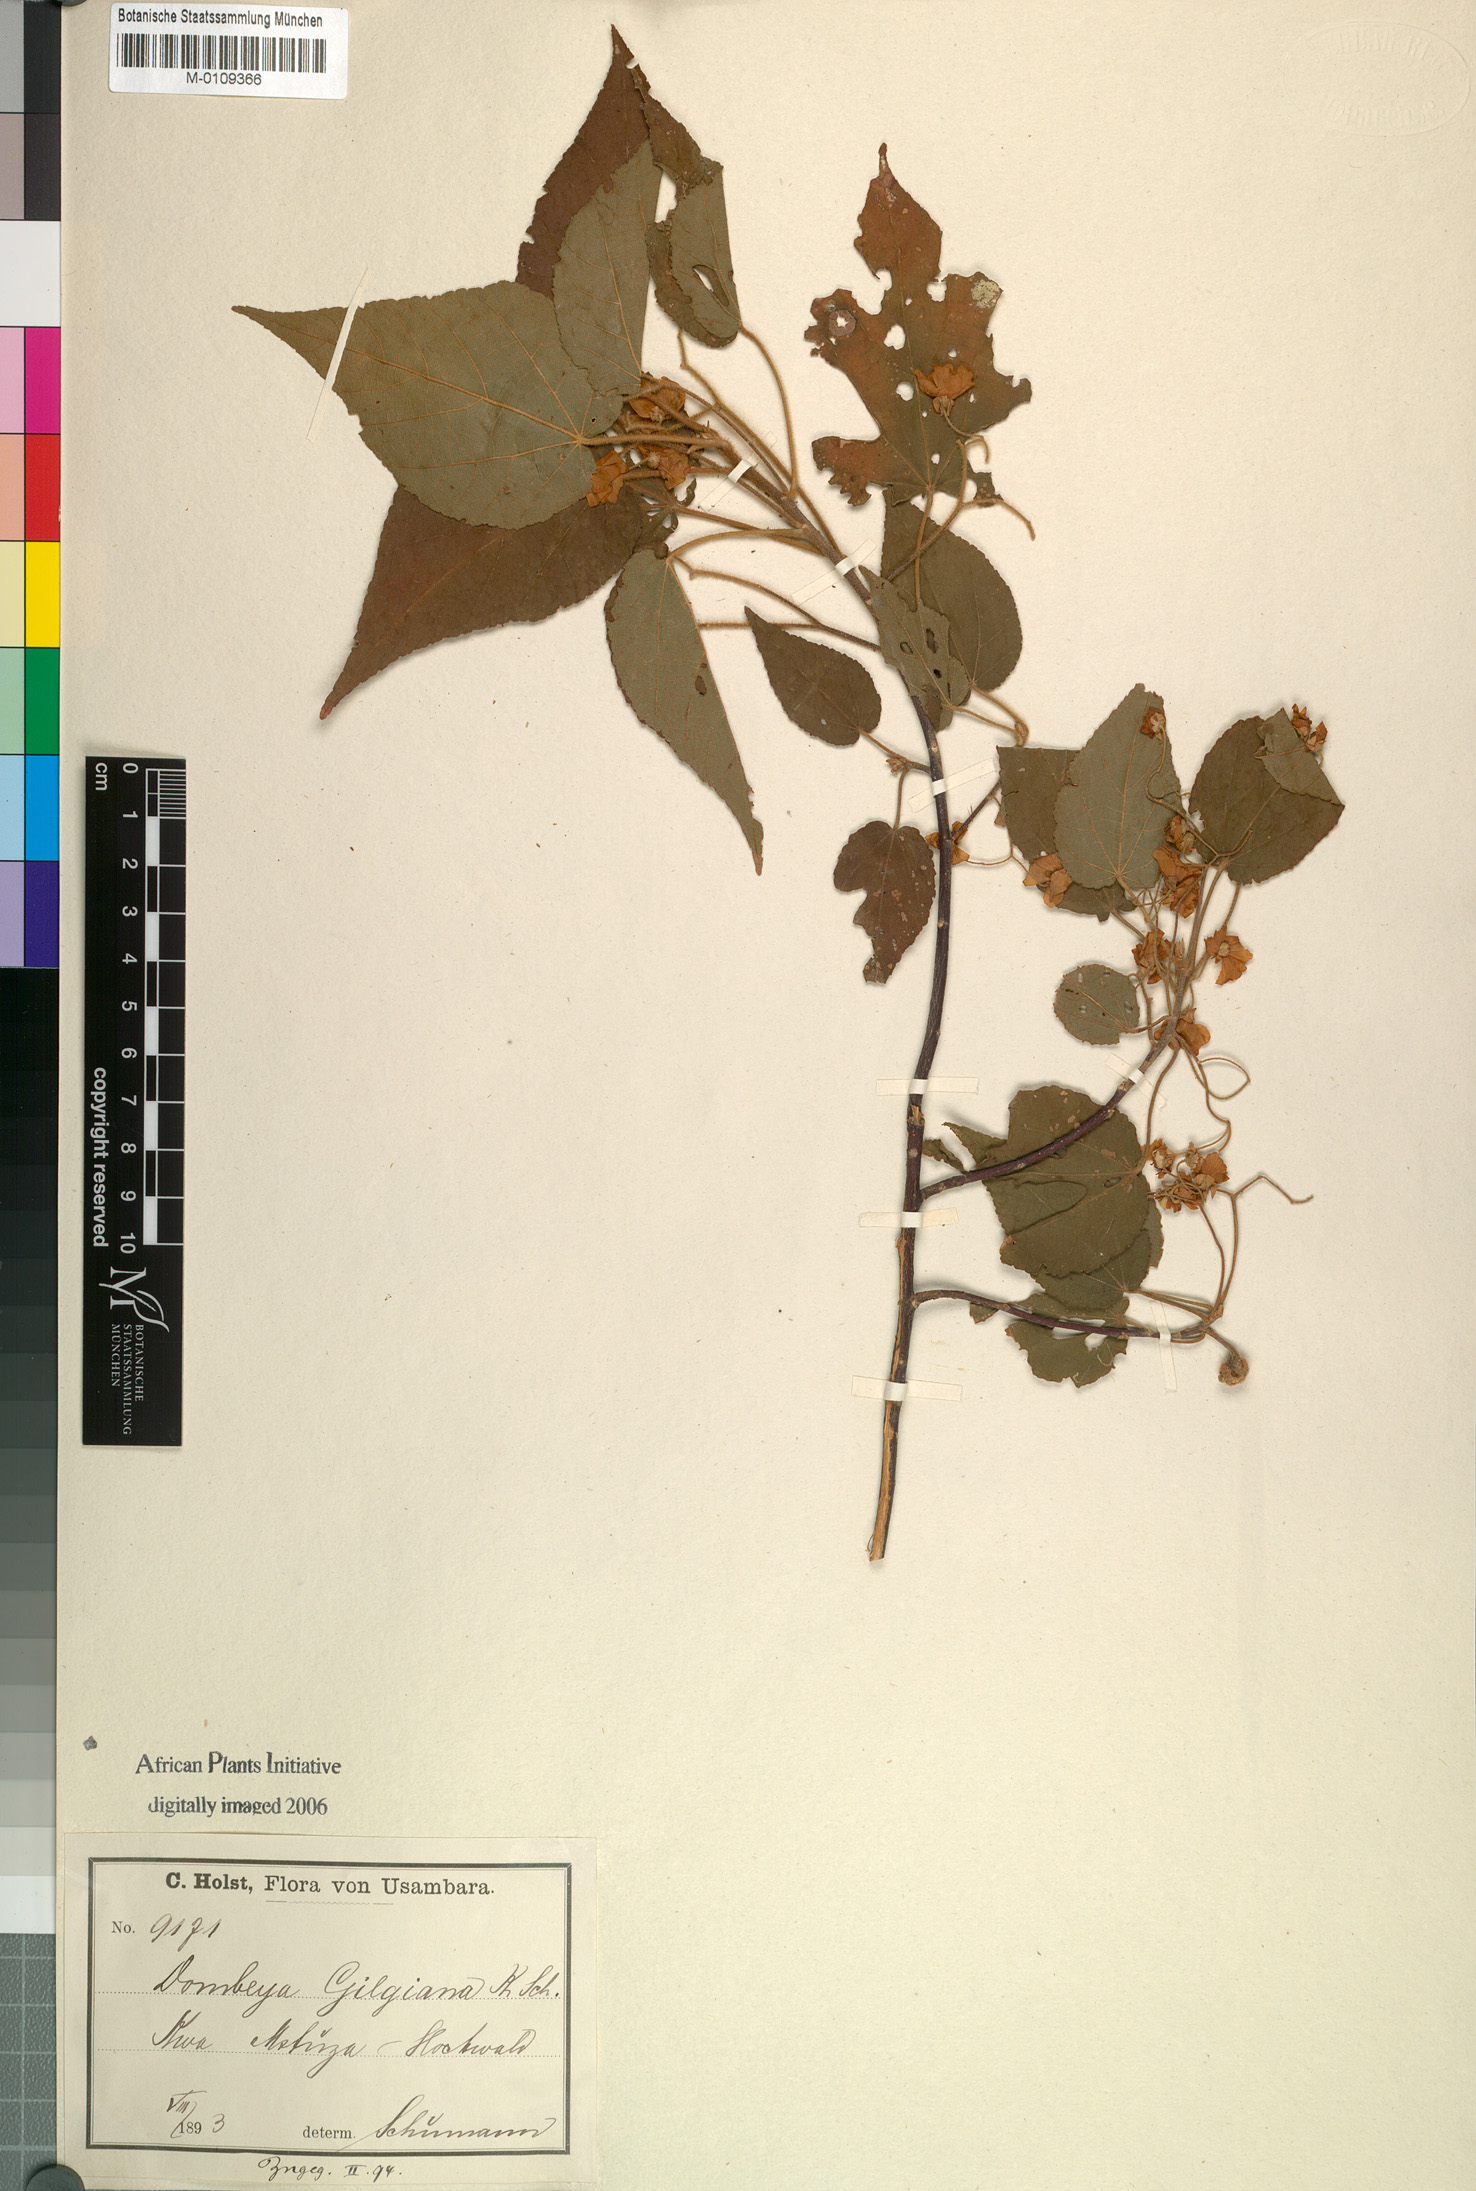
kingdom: Plantae
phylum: Tracheophyta
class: Magnoliopsida
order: Malvales
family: Malvaceae
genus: Dombeya
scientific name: Dombeya kirkii
